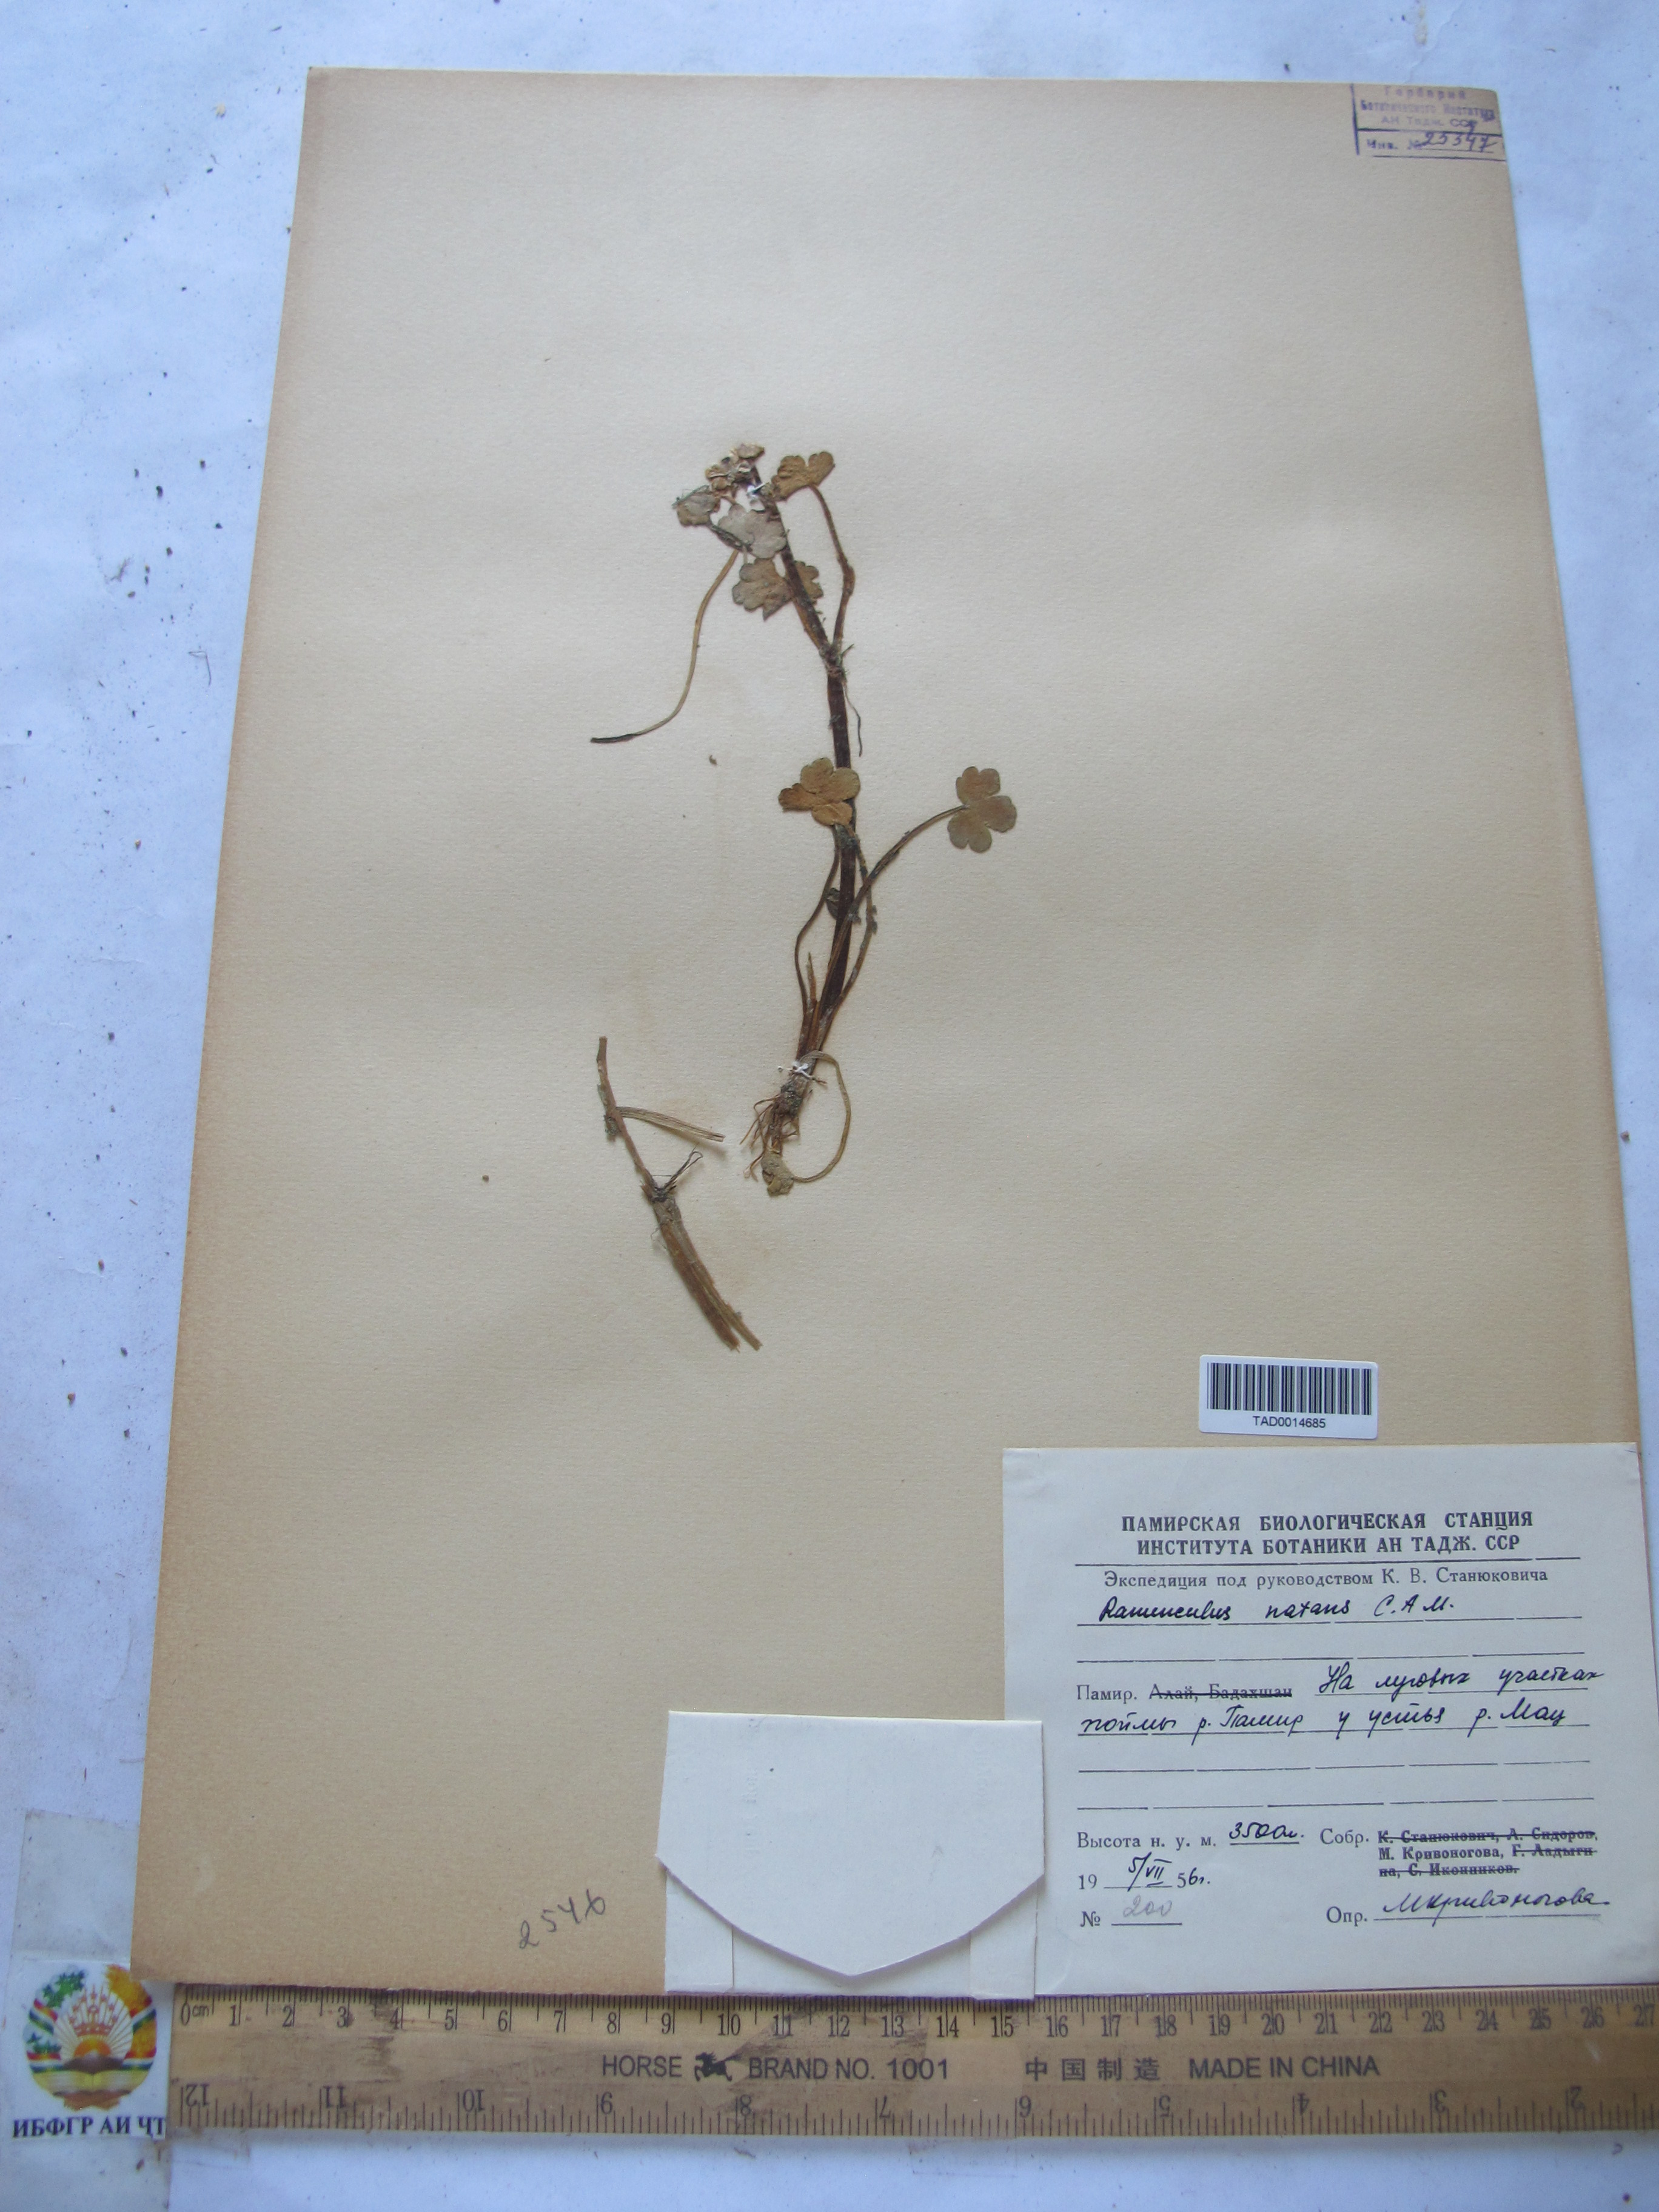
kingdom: Plantae
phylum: Tracheophyta
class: Magnoliopsida
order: Ranunculales
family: Ranunculaceae
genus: Ranunculus
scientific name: Ranunculus natans
